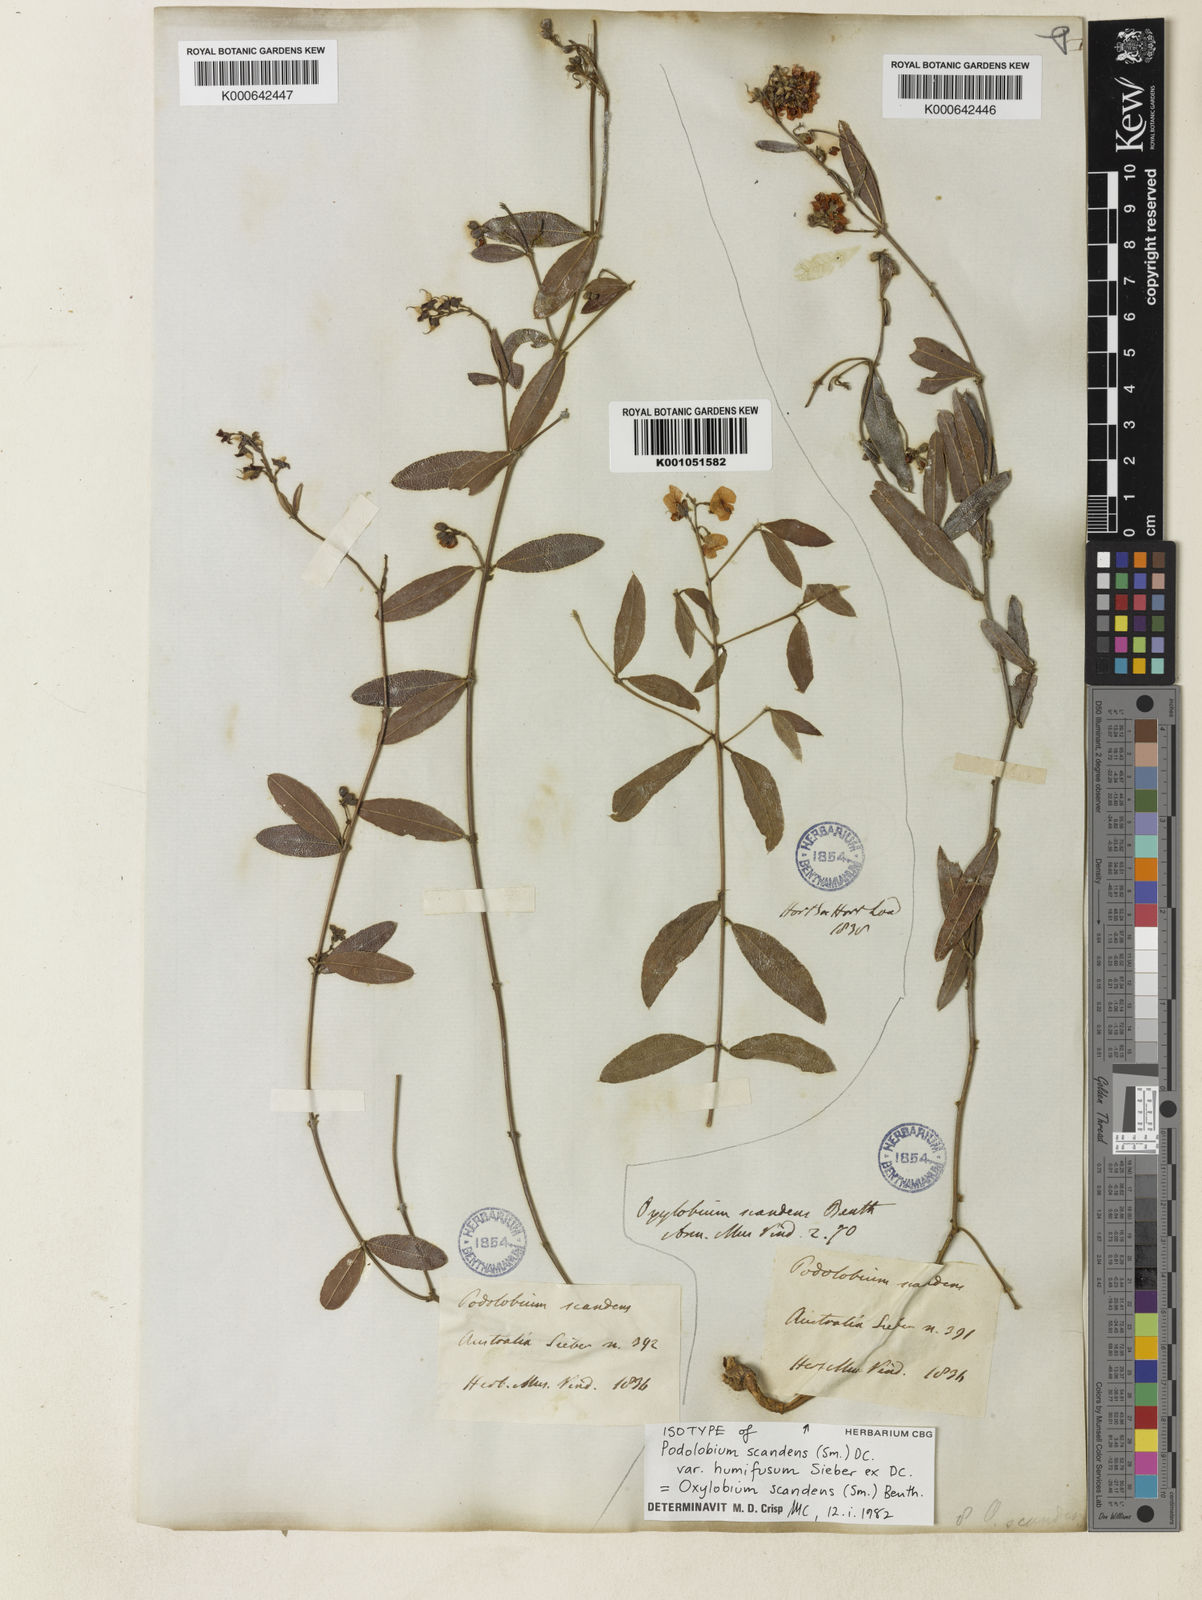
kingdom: Plantae
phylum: Tracheophyta
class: Magnoliopsida
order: Fabales
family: Fabaceae
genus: Podolobium
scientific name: Podolobium scandens
